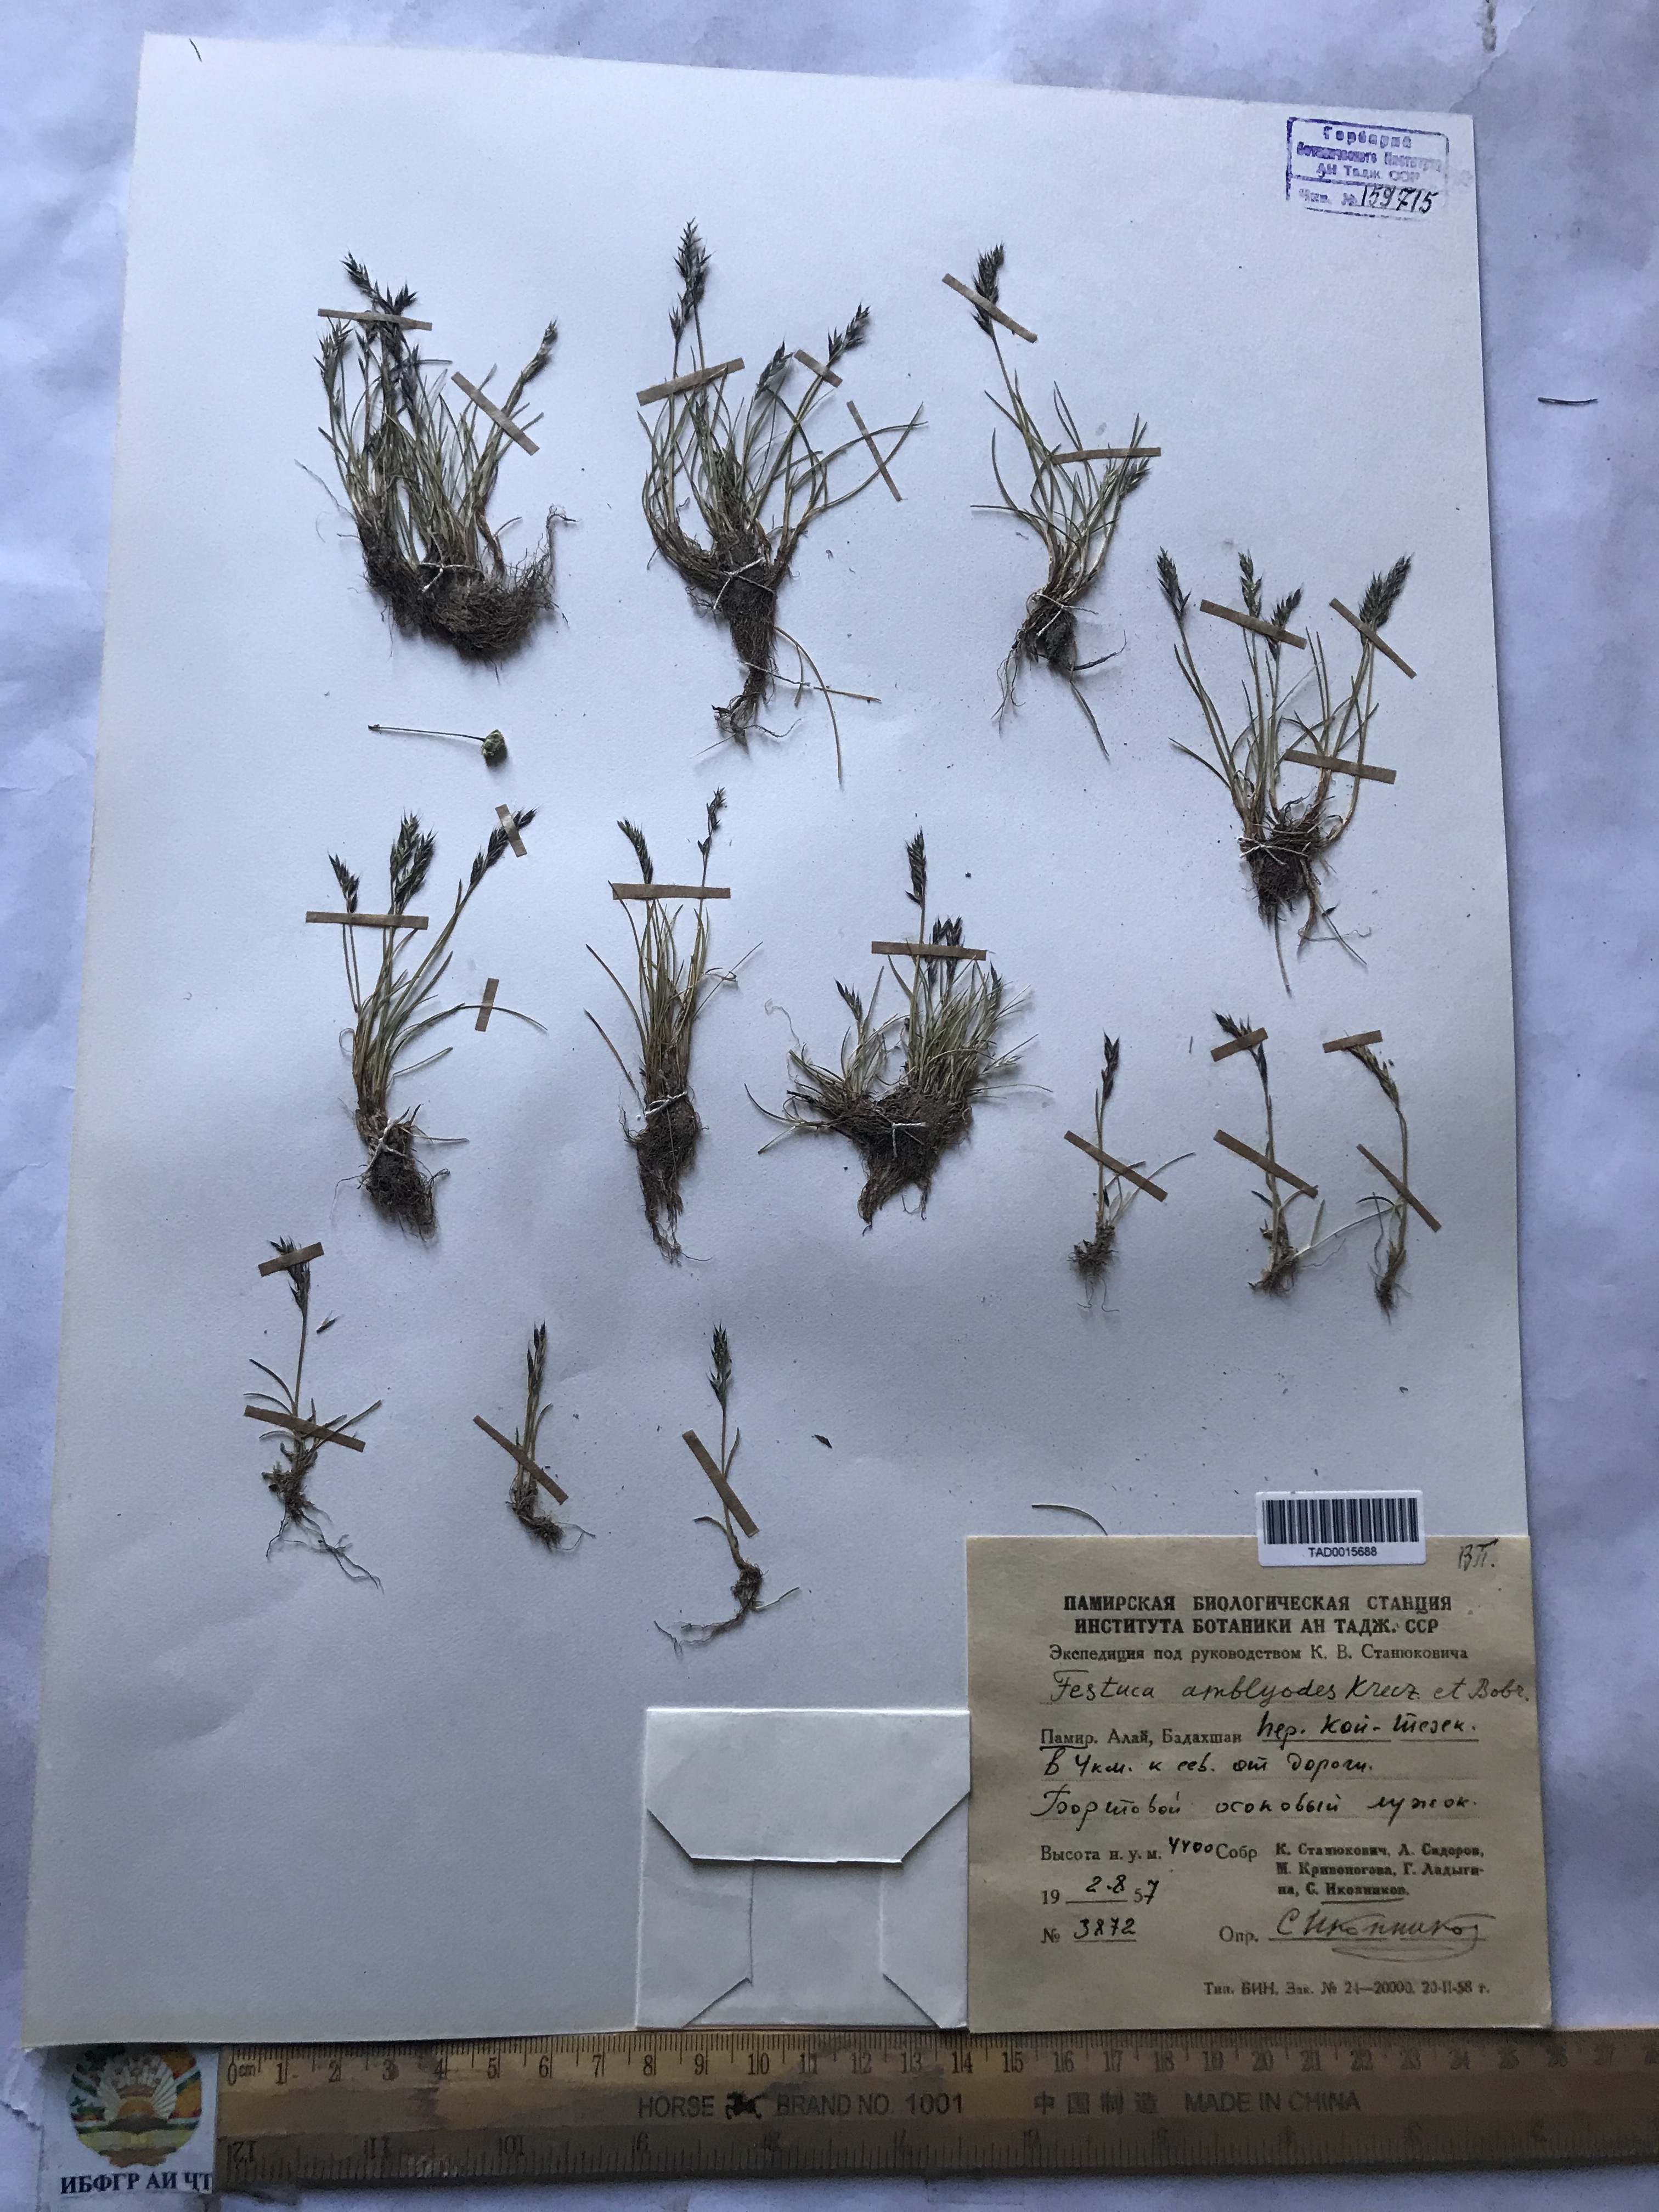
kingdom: Plantae
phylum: Tracheophyta
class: Liliopsida
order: Poales
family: Poaceae
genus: Festuca
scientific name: Festuca amblyodes
